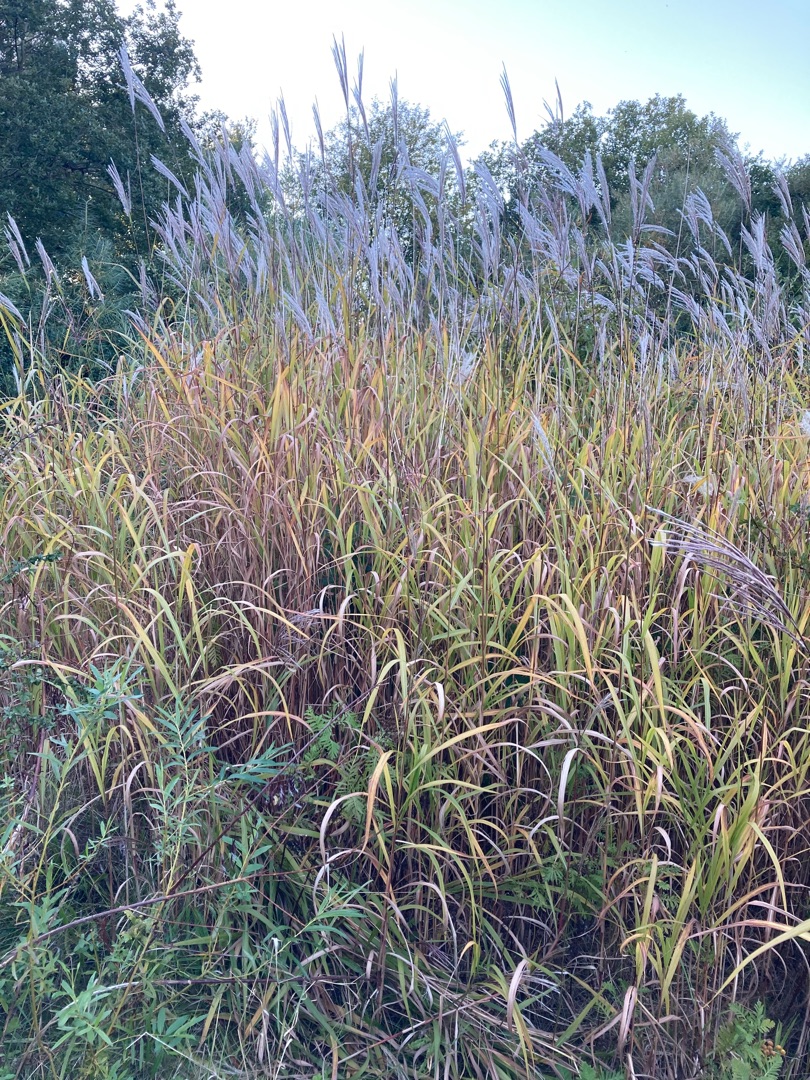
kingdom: Plantae
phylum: Tracheophyta
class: Liliopsida
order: Poales
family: Poaceae
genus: Miscanthus
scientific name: Miscanthus sacchariflorus
